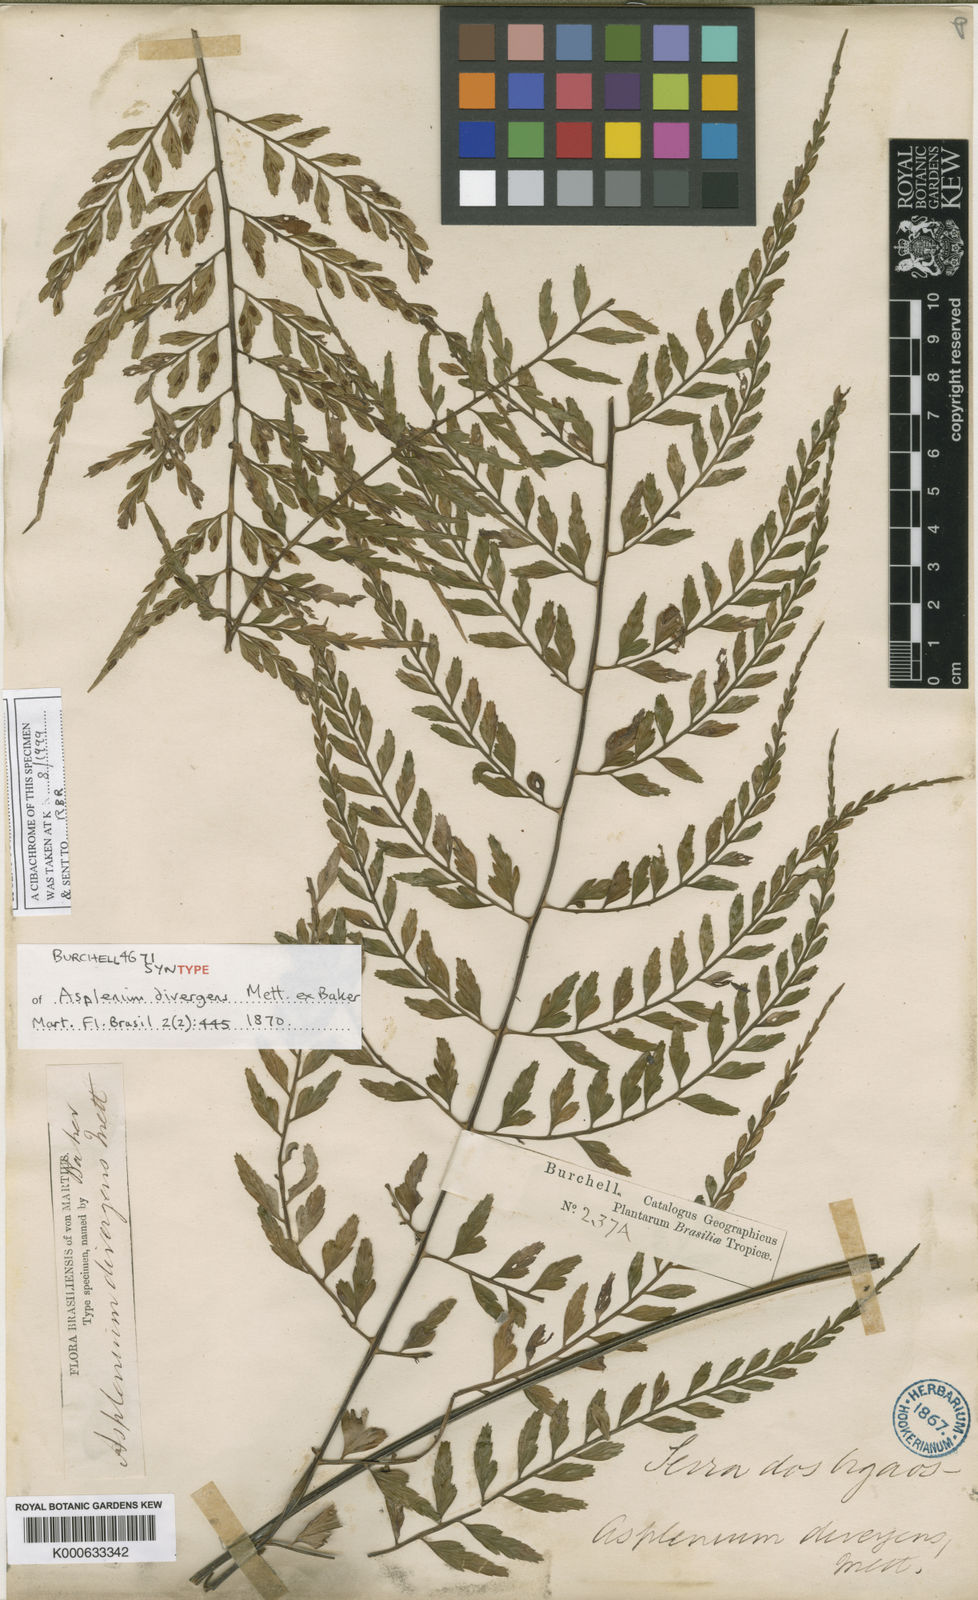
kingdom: Plantae
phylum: Tracheophyta
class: Polypodiopsida
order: Polypodiales
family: Aspleniaceae
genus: Asplenium
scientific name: Asplenium auritum
